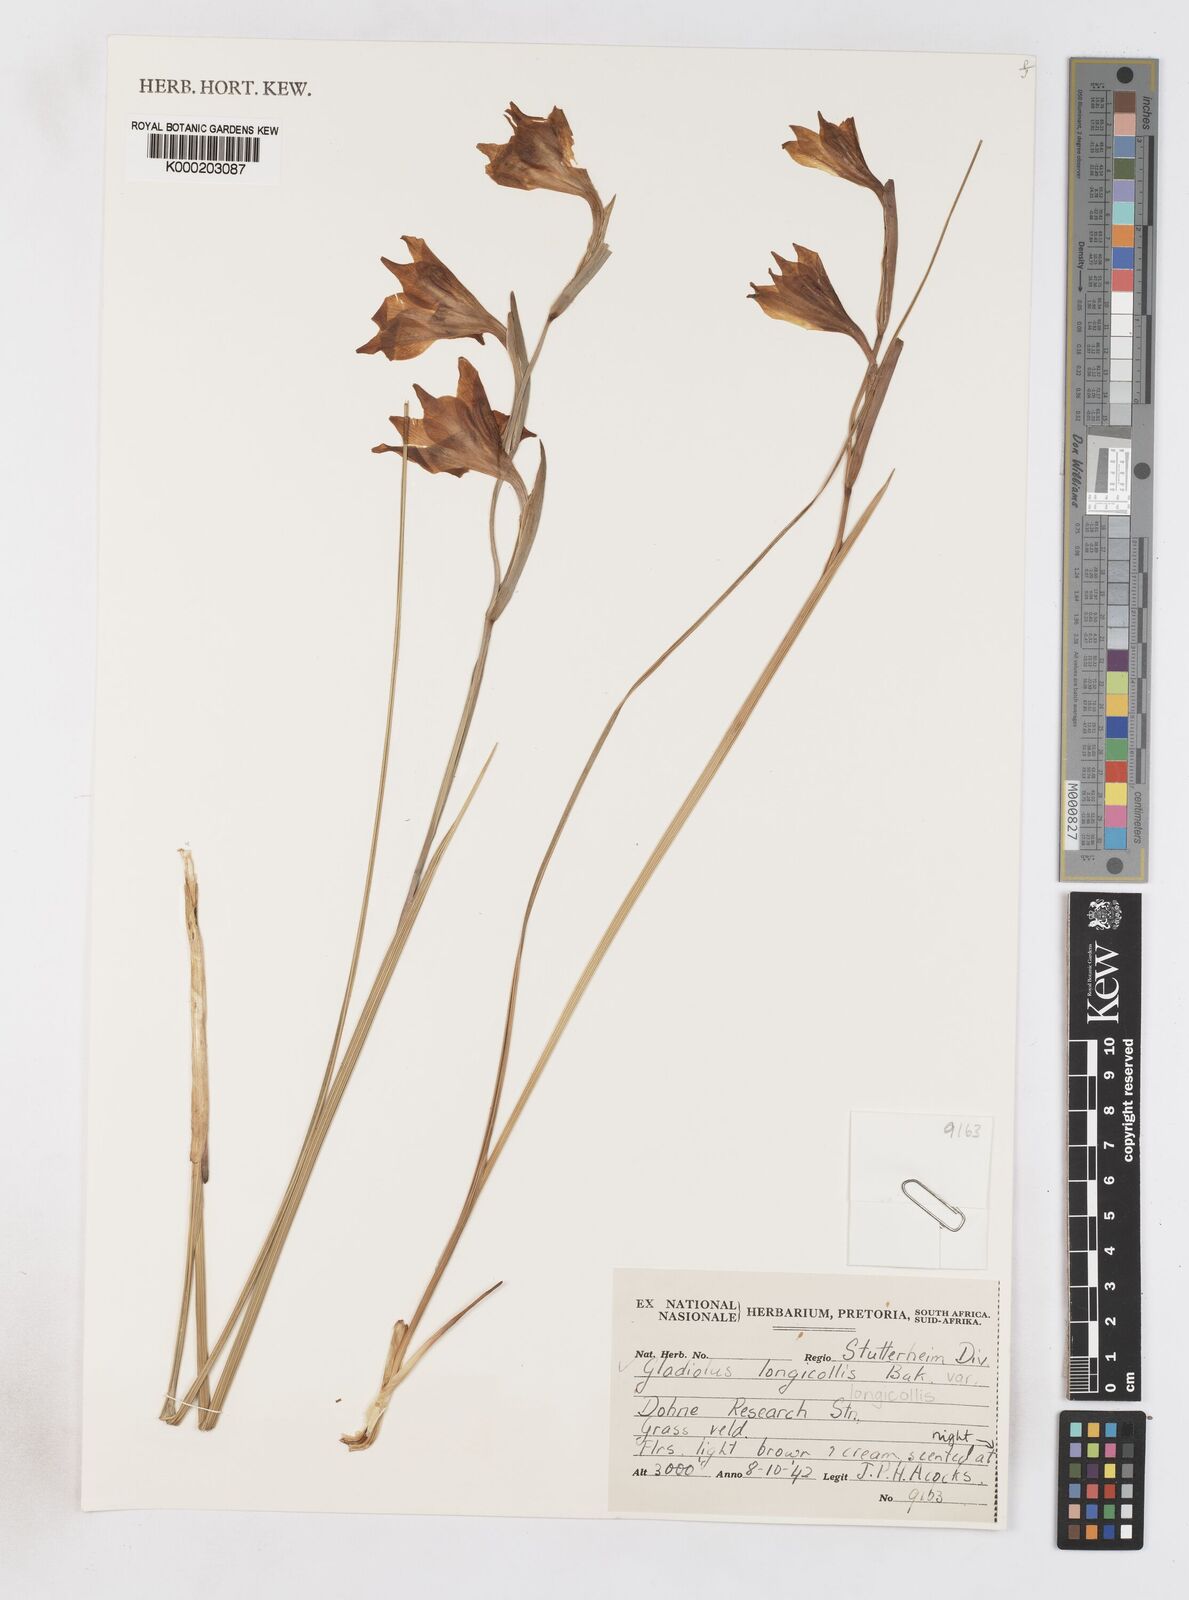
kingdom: Plantae
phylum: Tracheophyta
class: Liliopsida
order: Asparagales
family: Iridaceae
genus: Gladiolus
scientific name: Gladiolus longicollis
